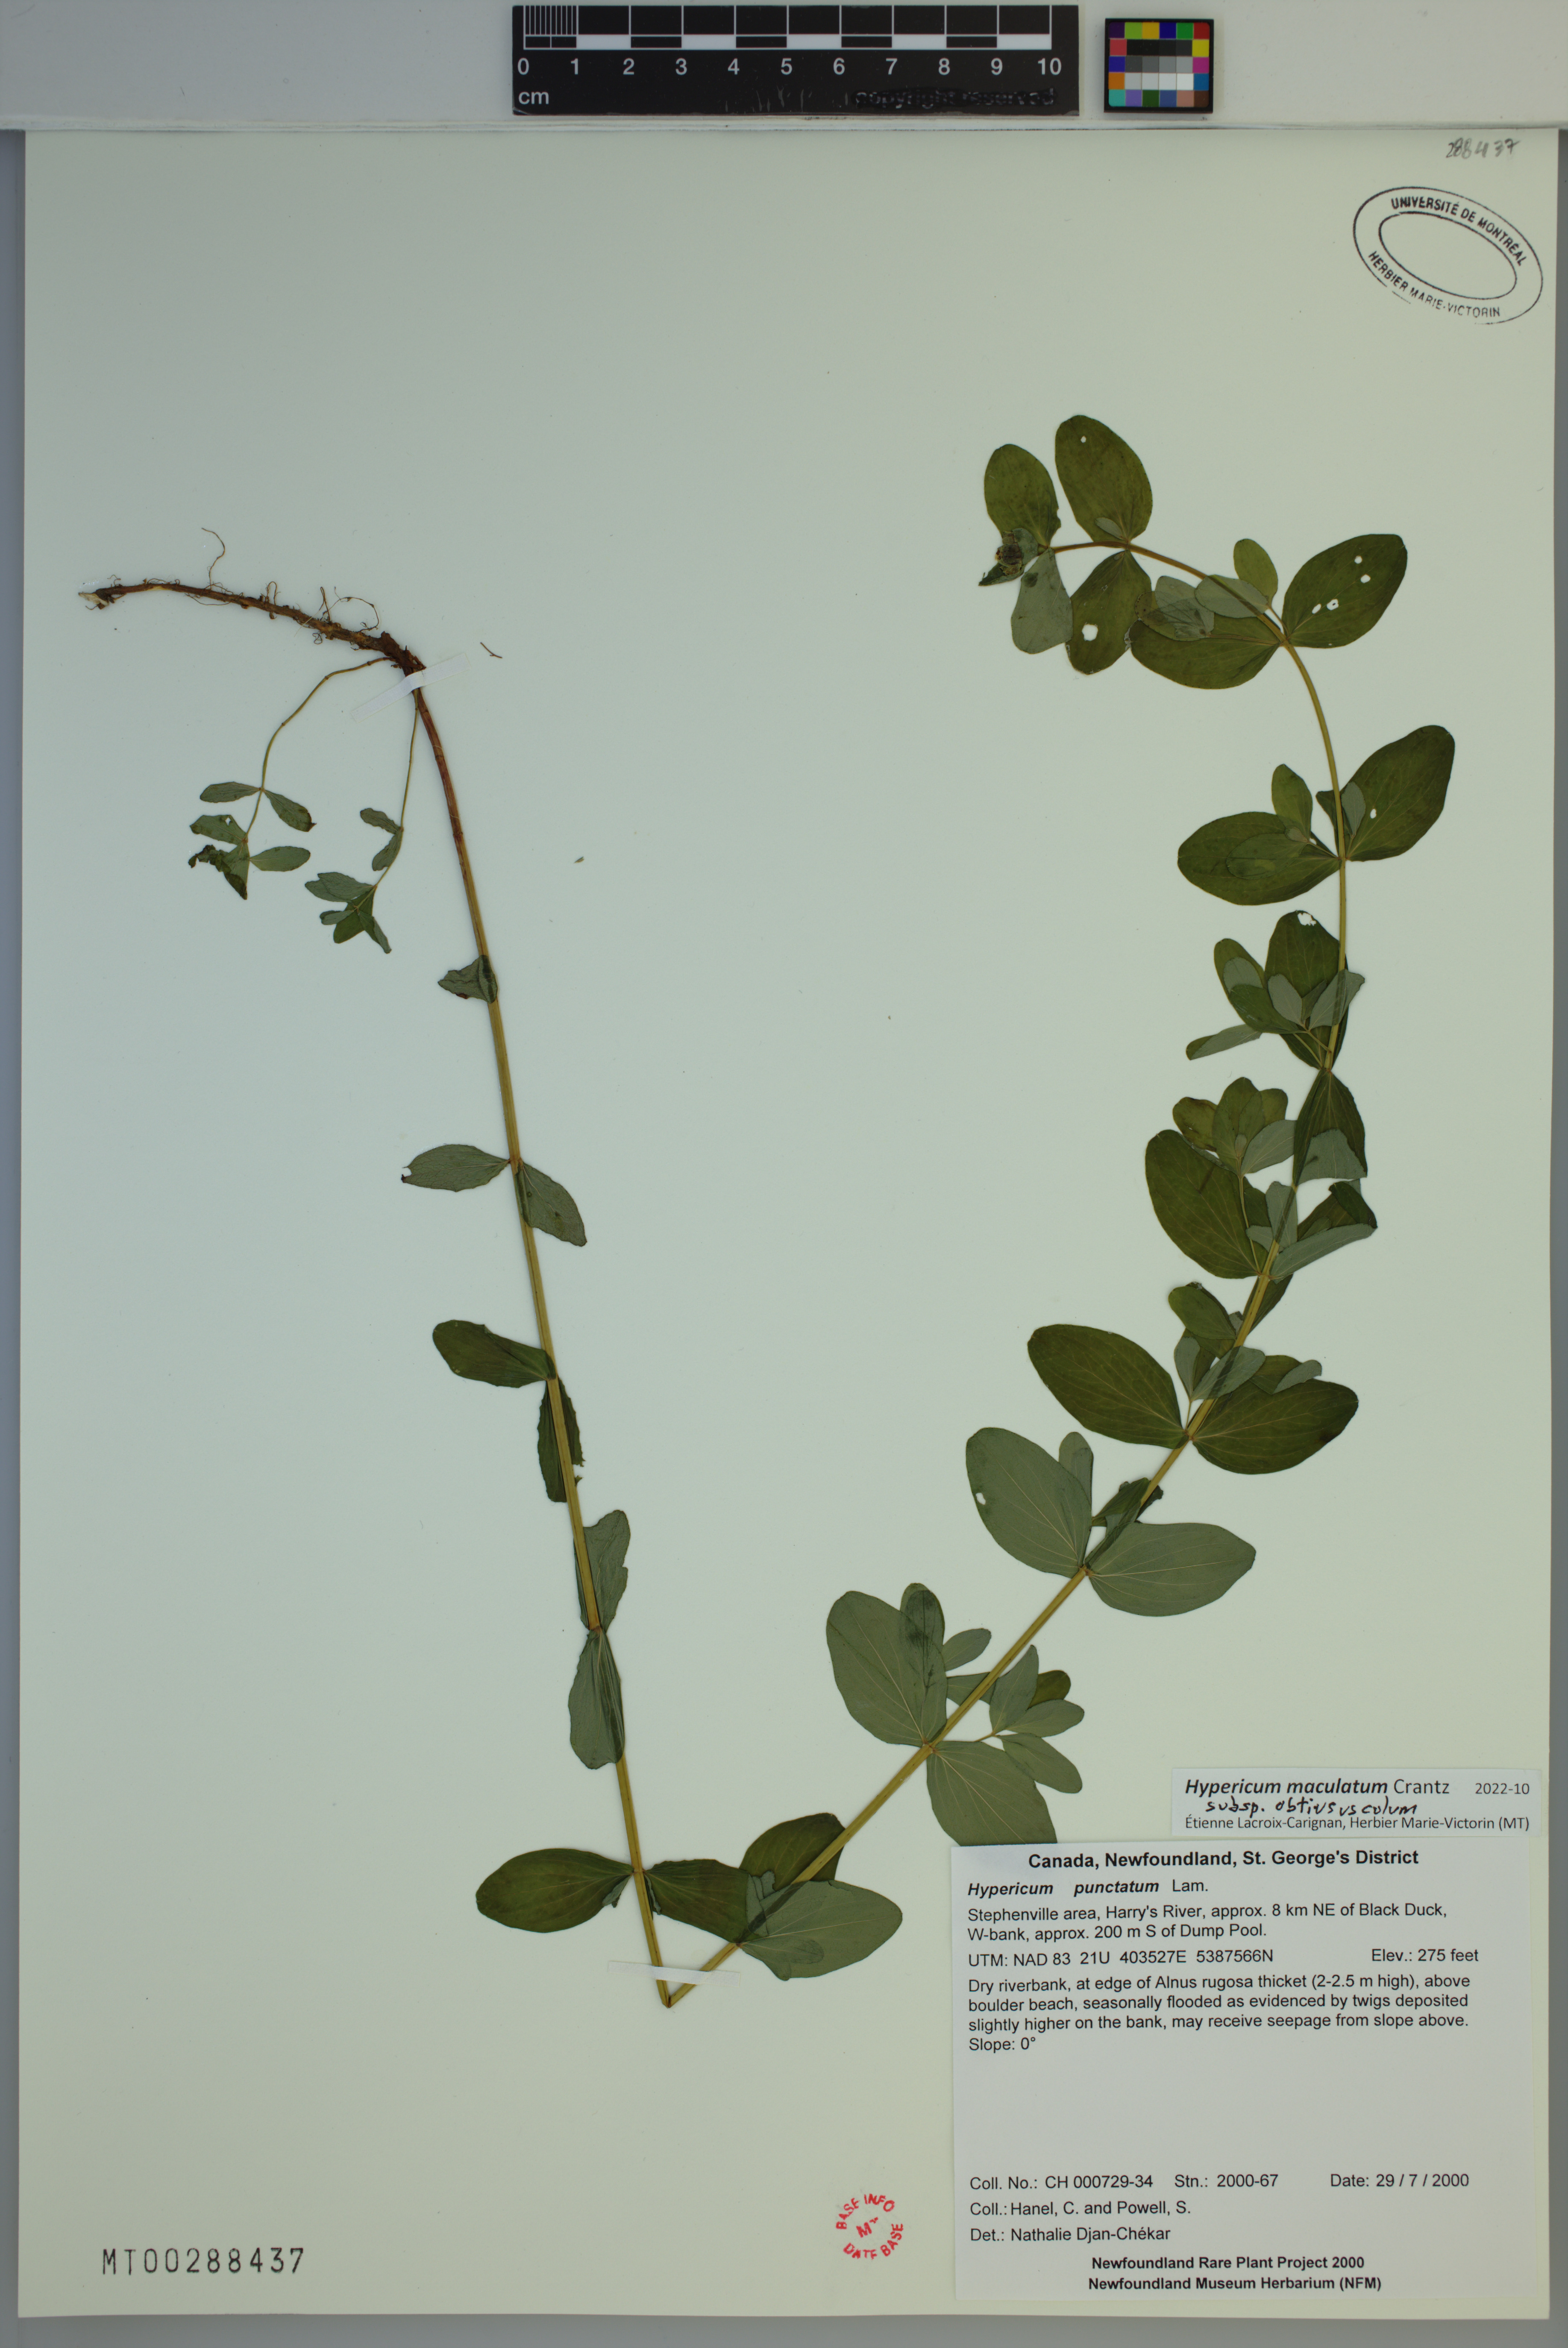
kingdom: Plantae
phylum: Tracheophyta
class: Magnoliopsida
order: Malpighiales
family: Hypericaceae
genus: Hypericum
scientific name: Hypericum dubium
